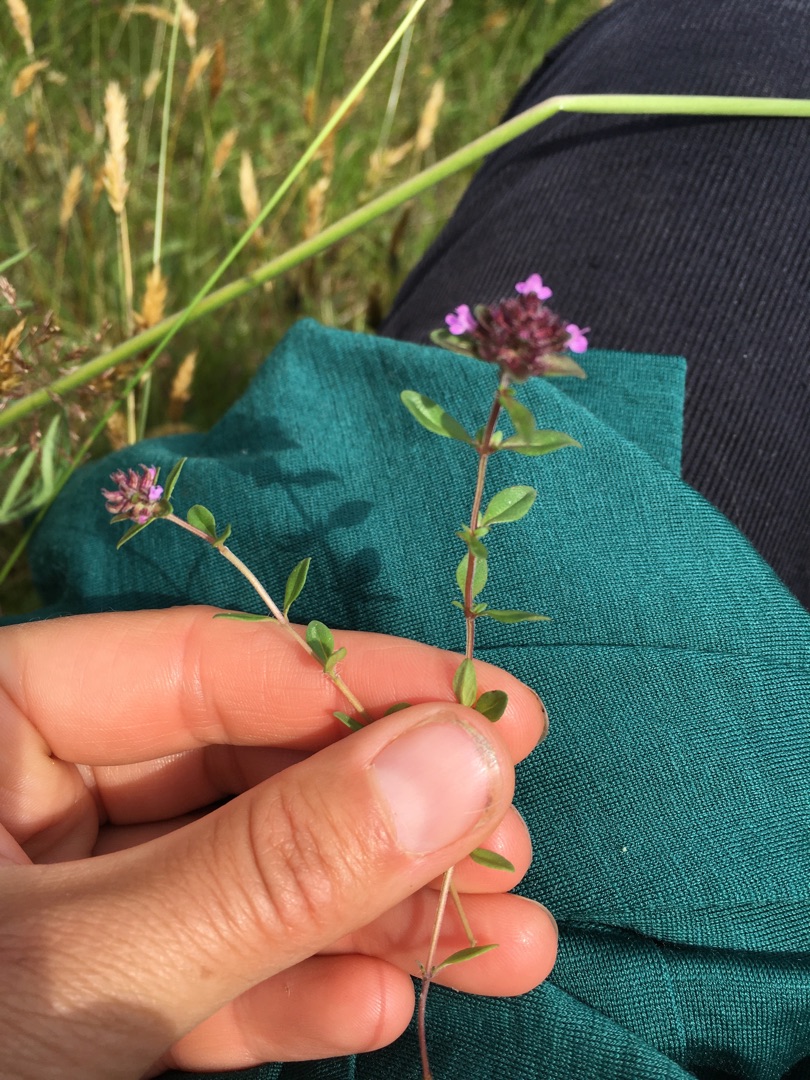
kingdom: Plantae
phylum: Tracheophyta
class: Magnoliopsida
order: Lamiales
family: Lamiaceae
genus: Thymus
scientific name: Thymus serpyllum
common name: Smalbladet timian
